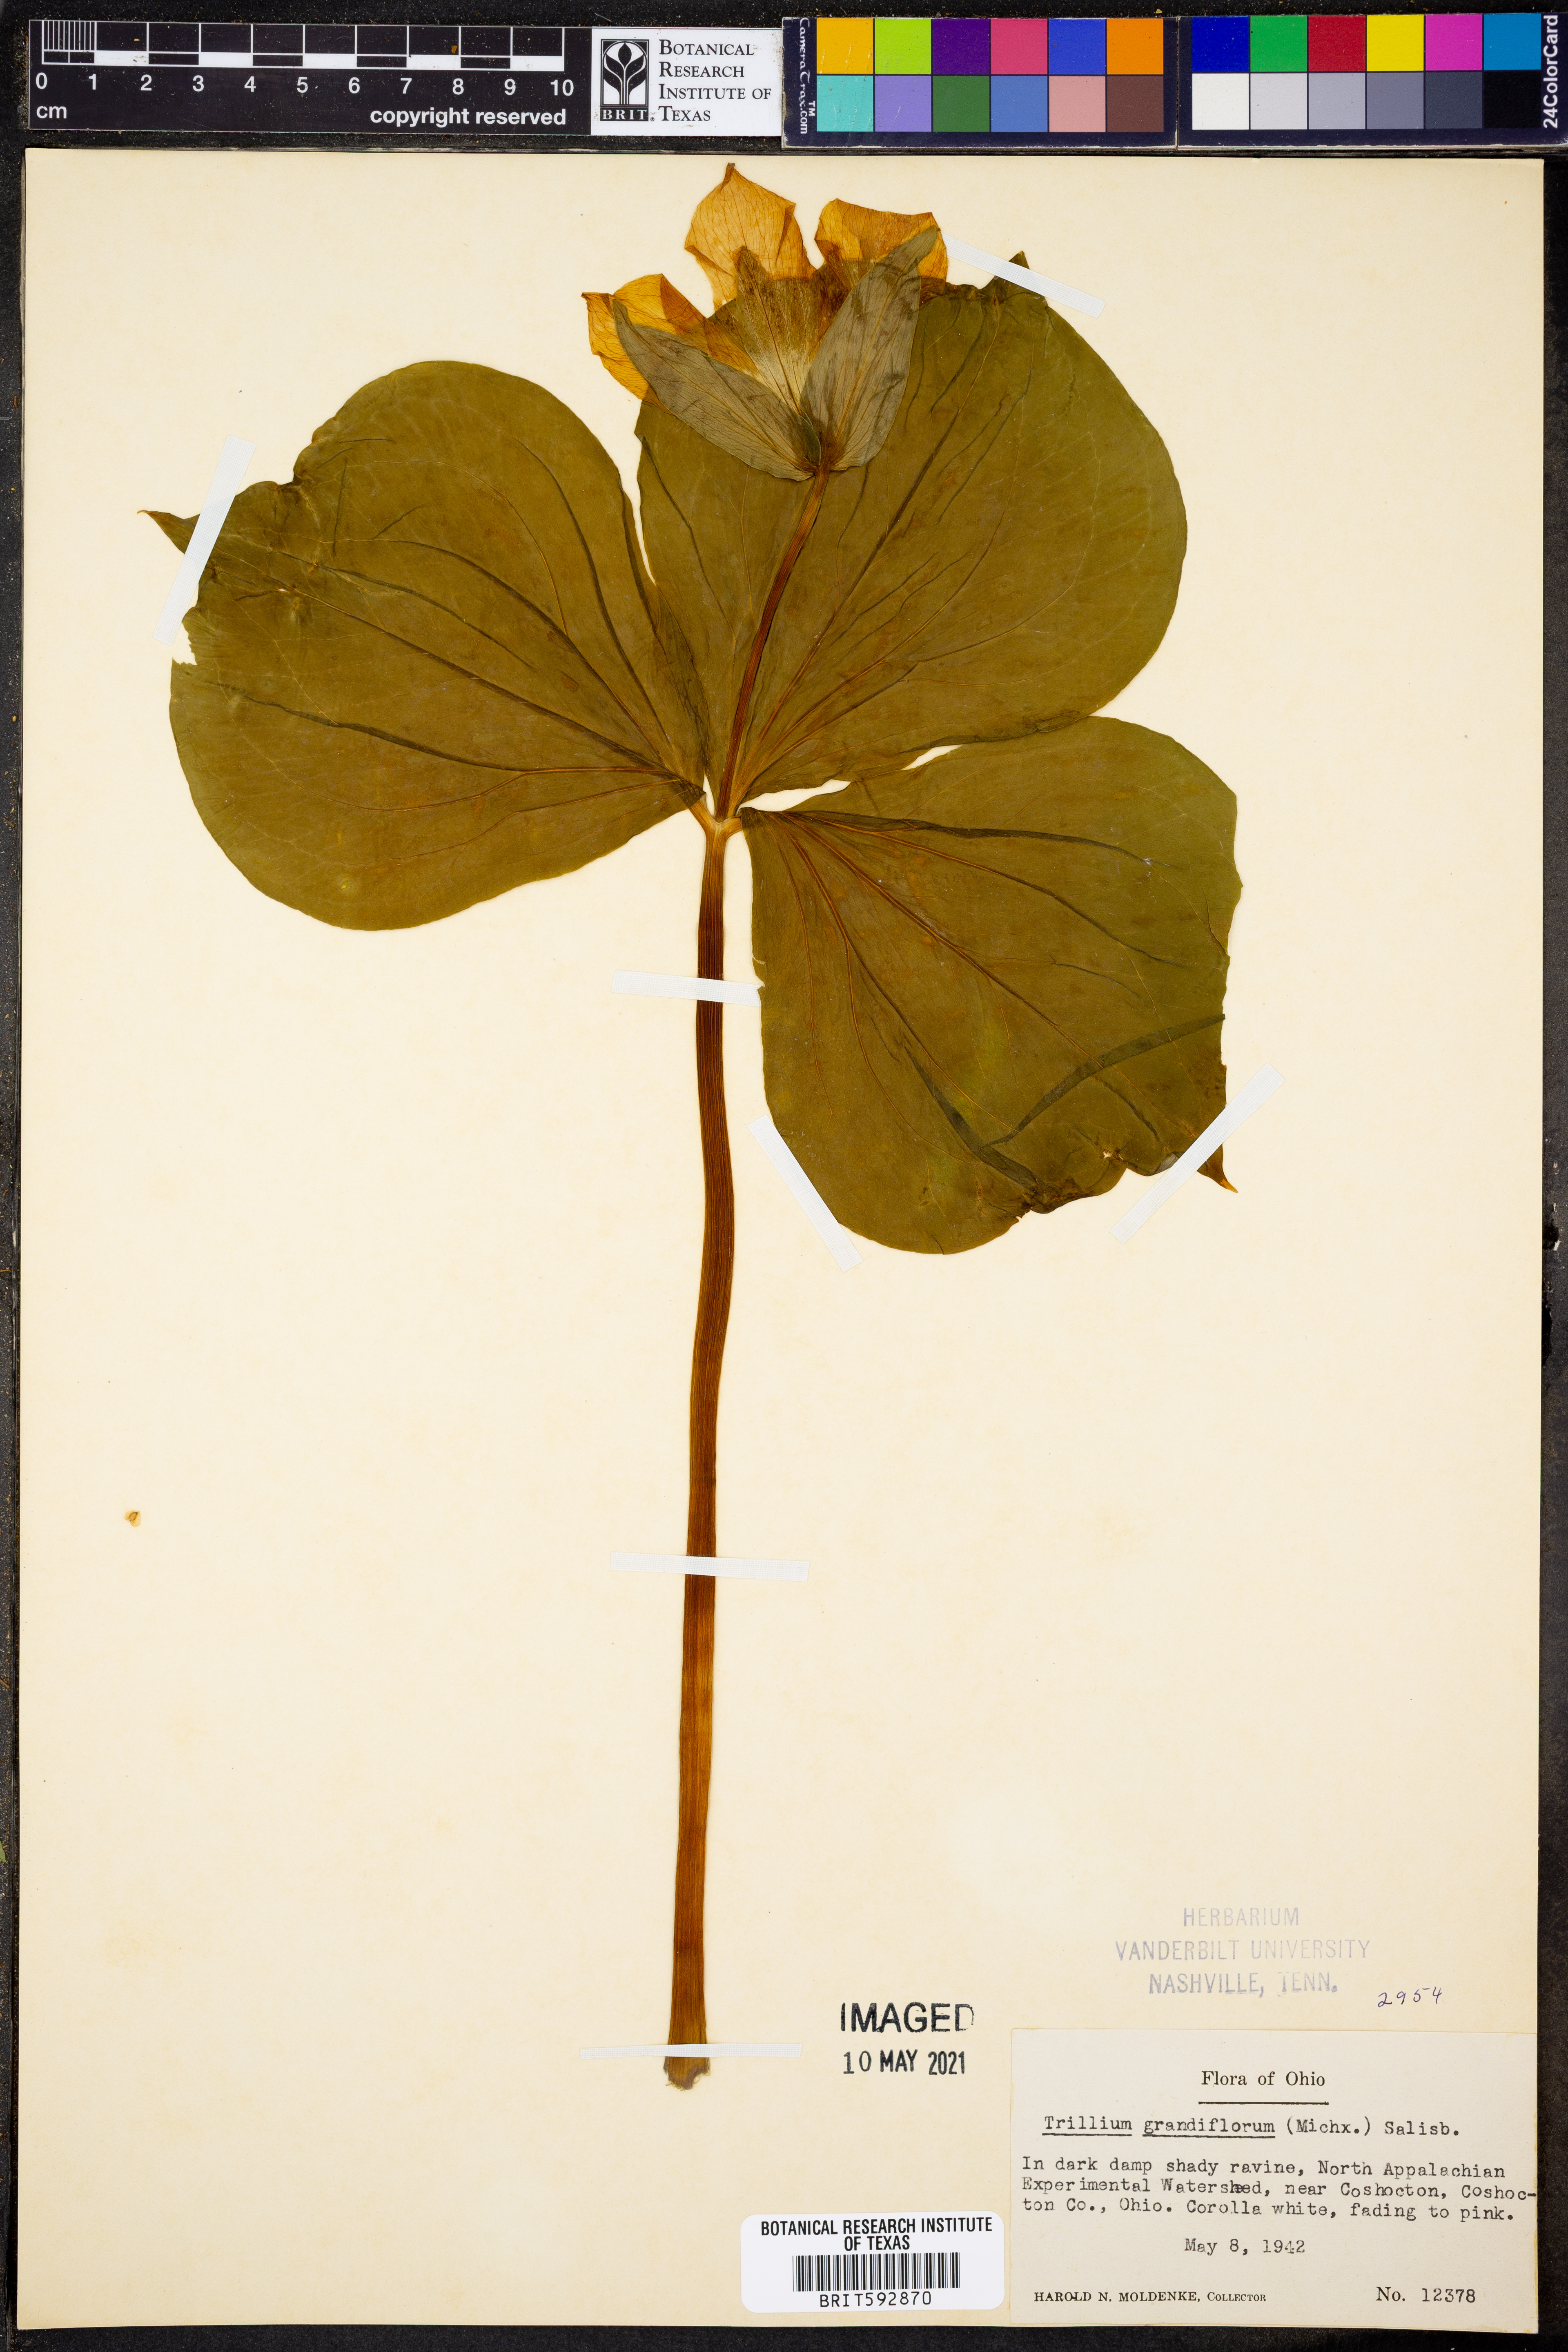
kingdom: Plantae
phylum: Tracheophyta
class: Liliopsida
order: Liliales
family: Melanthiaceae
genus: Trillium
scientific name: Trillium grandiflorum
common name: Great white trillium
